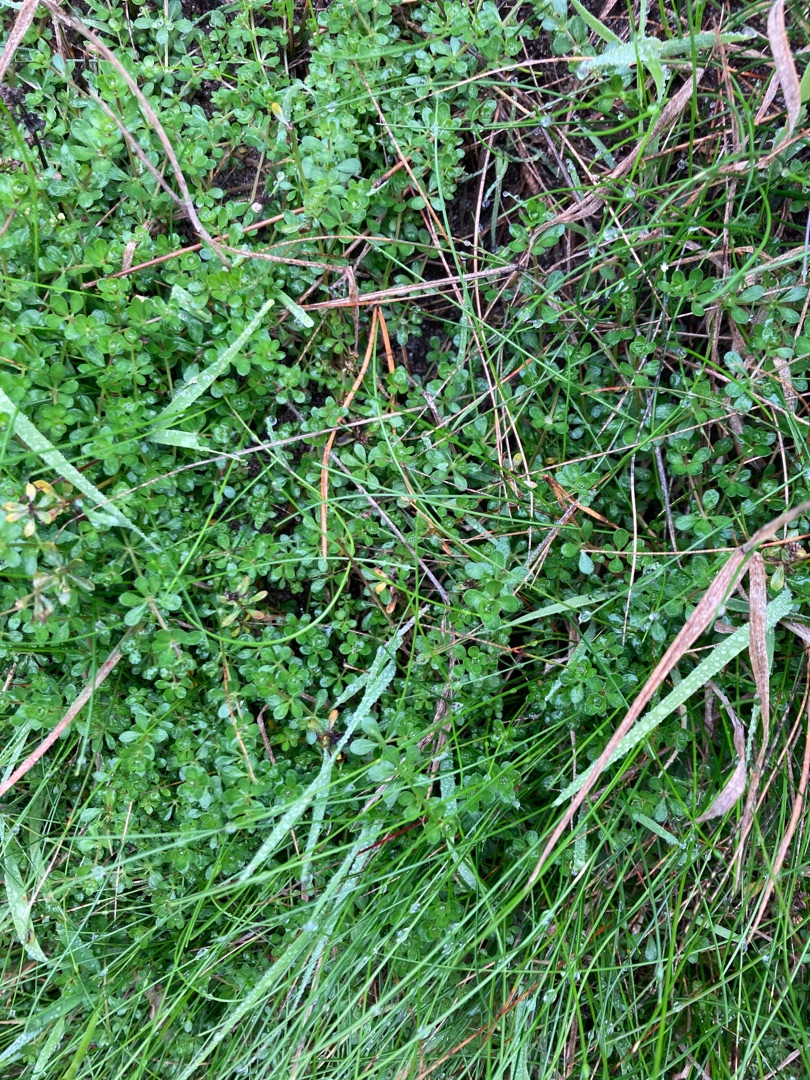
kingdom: Plantae
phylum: Tracheophyta
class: Magnoliopsida
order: Gentianales
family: Rubiaceae
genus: Galium
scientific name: Galium saxatile
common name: Lyng-snerre
